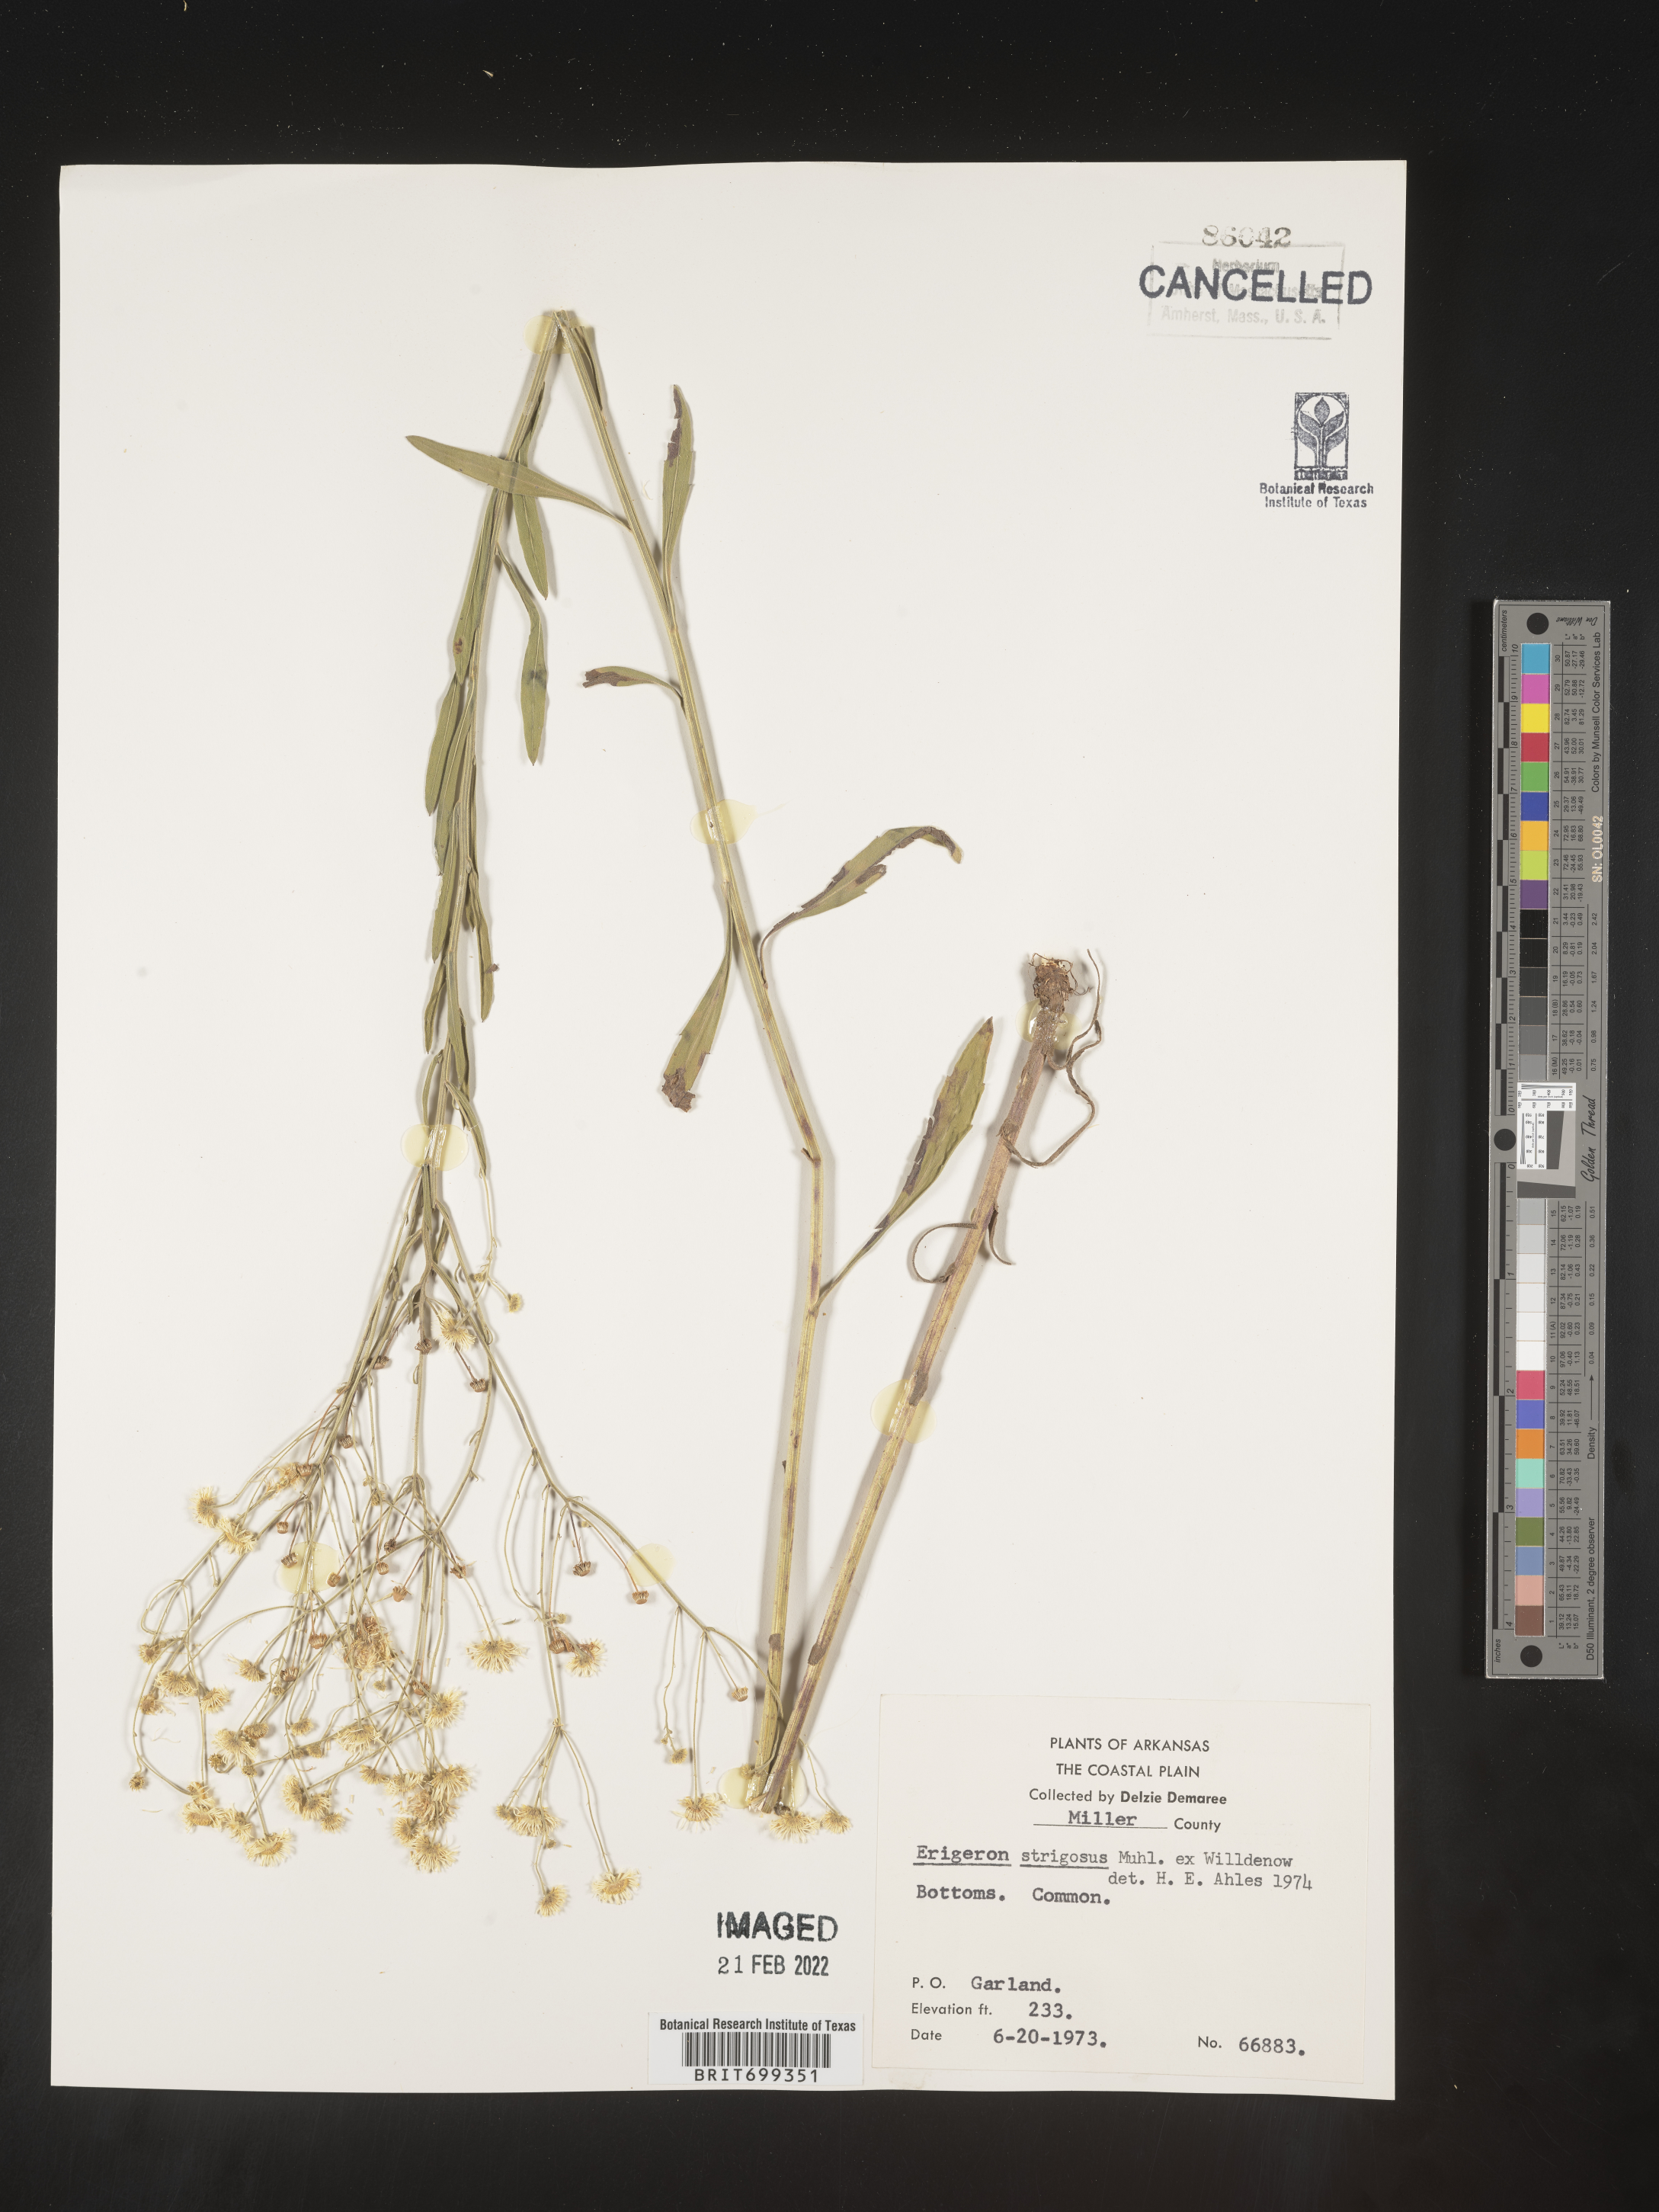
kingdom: Plantae
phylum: Tracheophyta
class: Magnoliopsida
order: Asterales
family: Asteraceae
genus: Erigeron
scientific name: Erigeron strigosus
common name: Common eastern fleabane
